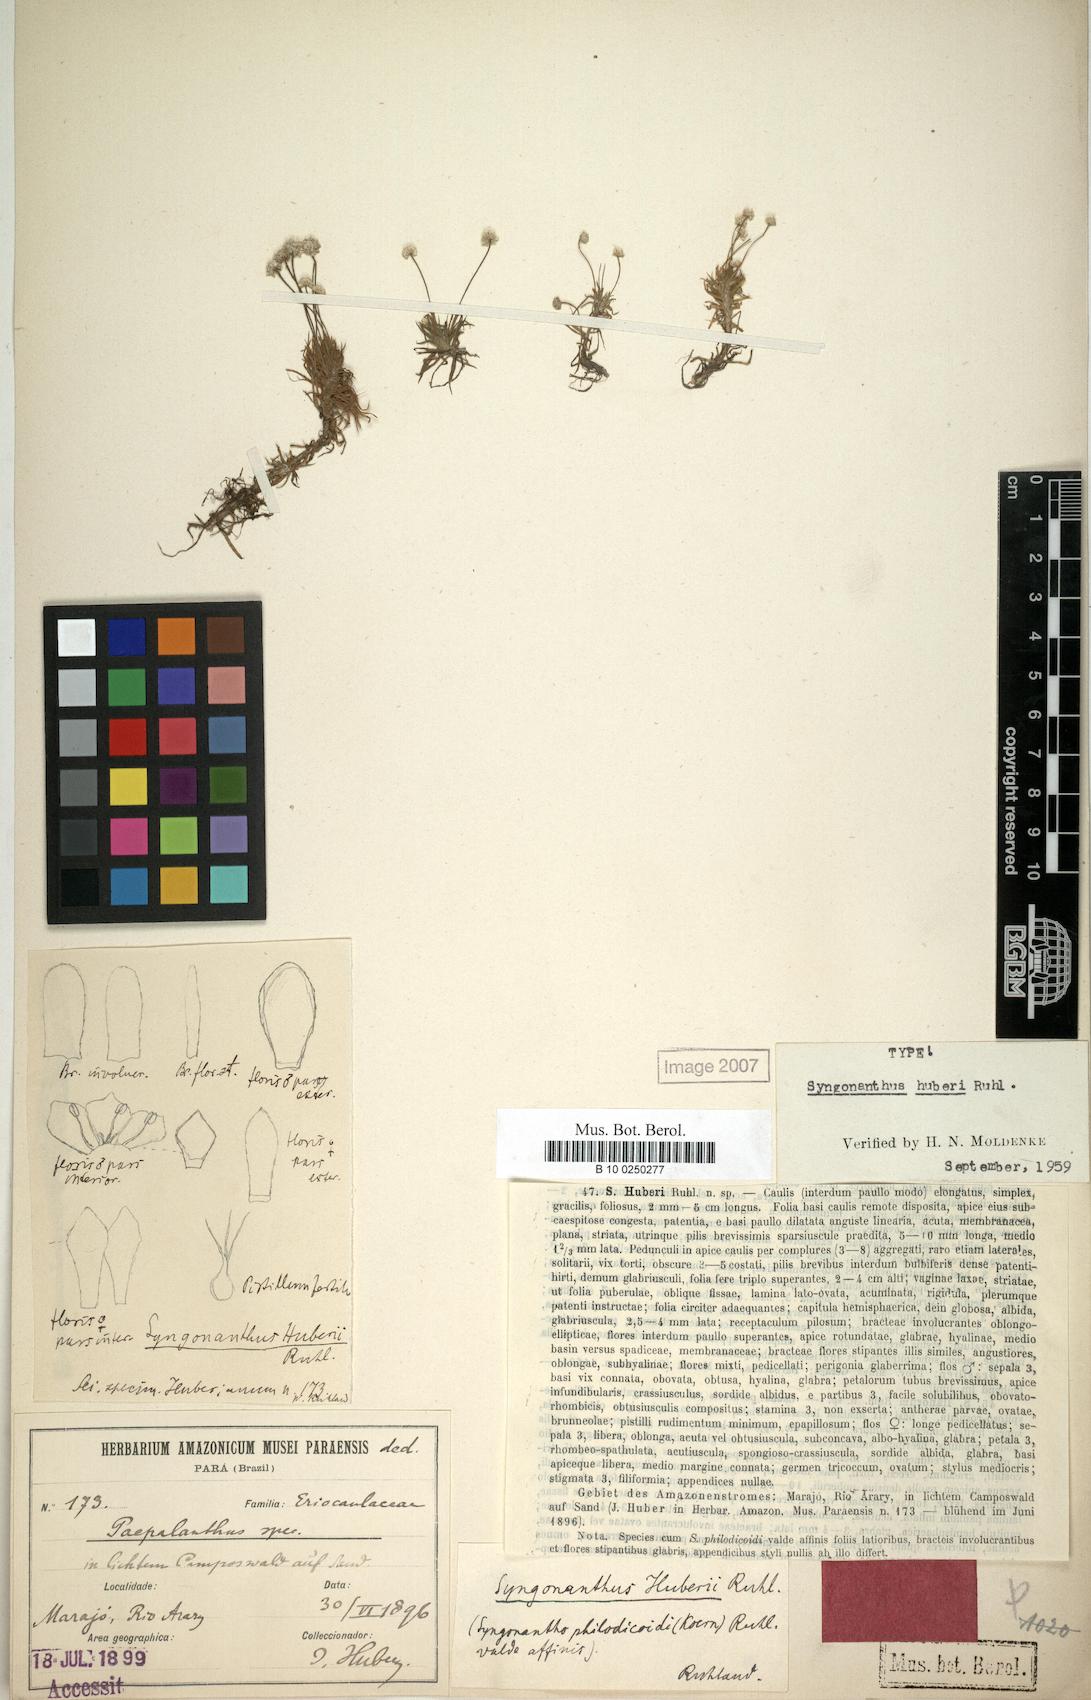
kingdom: Plantae
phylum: Tracheophyta
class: Liliopsida
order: Poales
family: Eriocaulaceae
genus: Syngonanthus
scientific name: Syngonanthus anomalus
